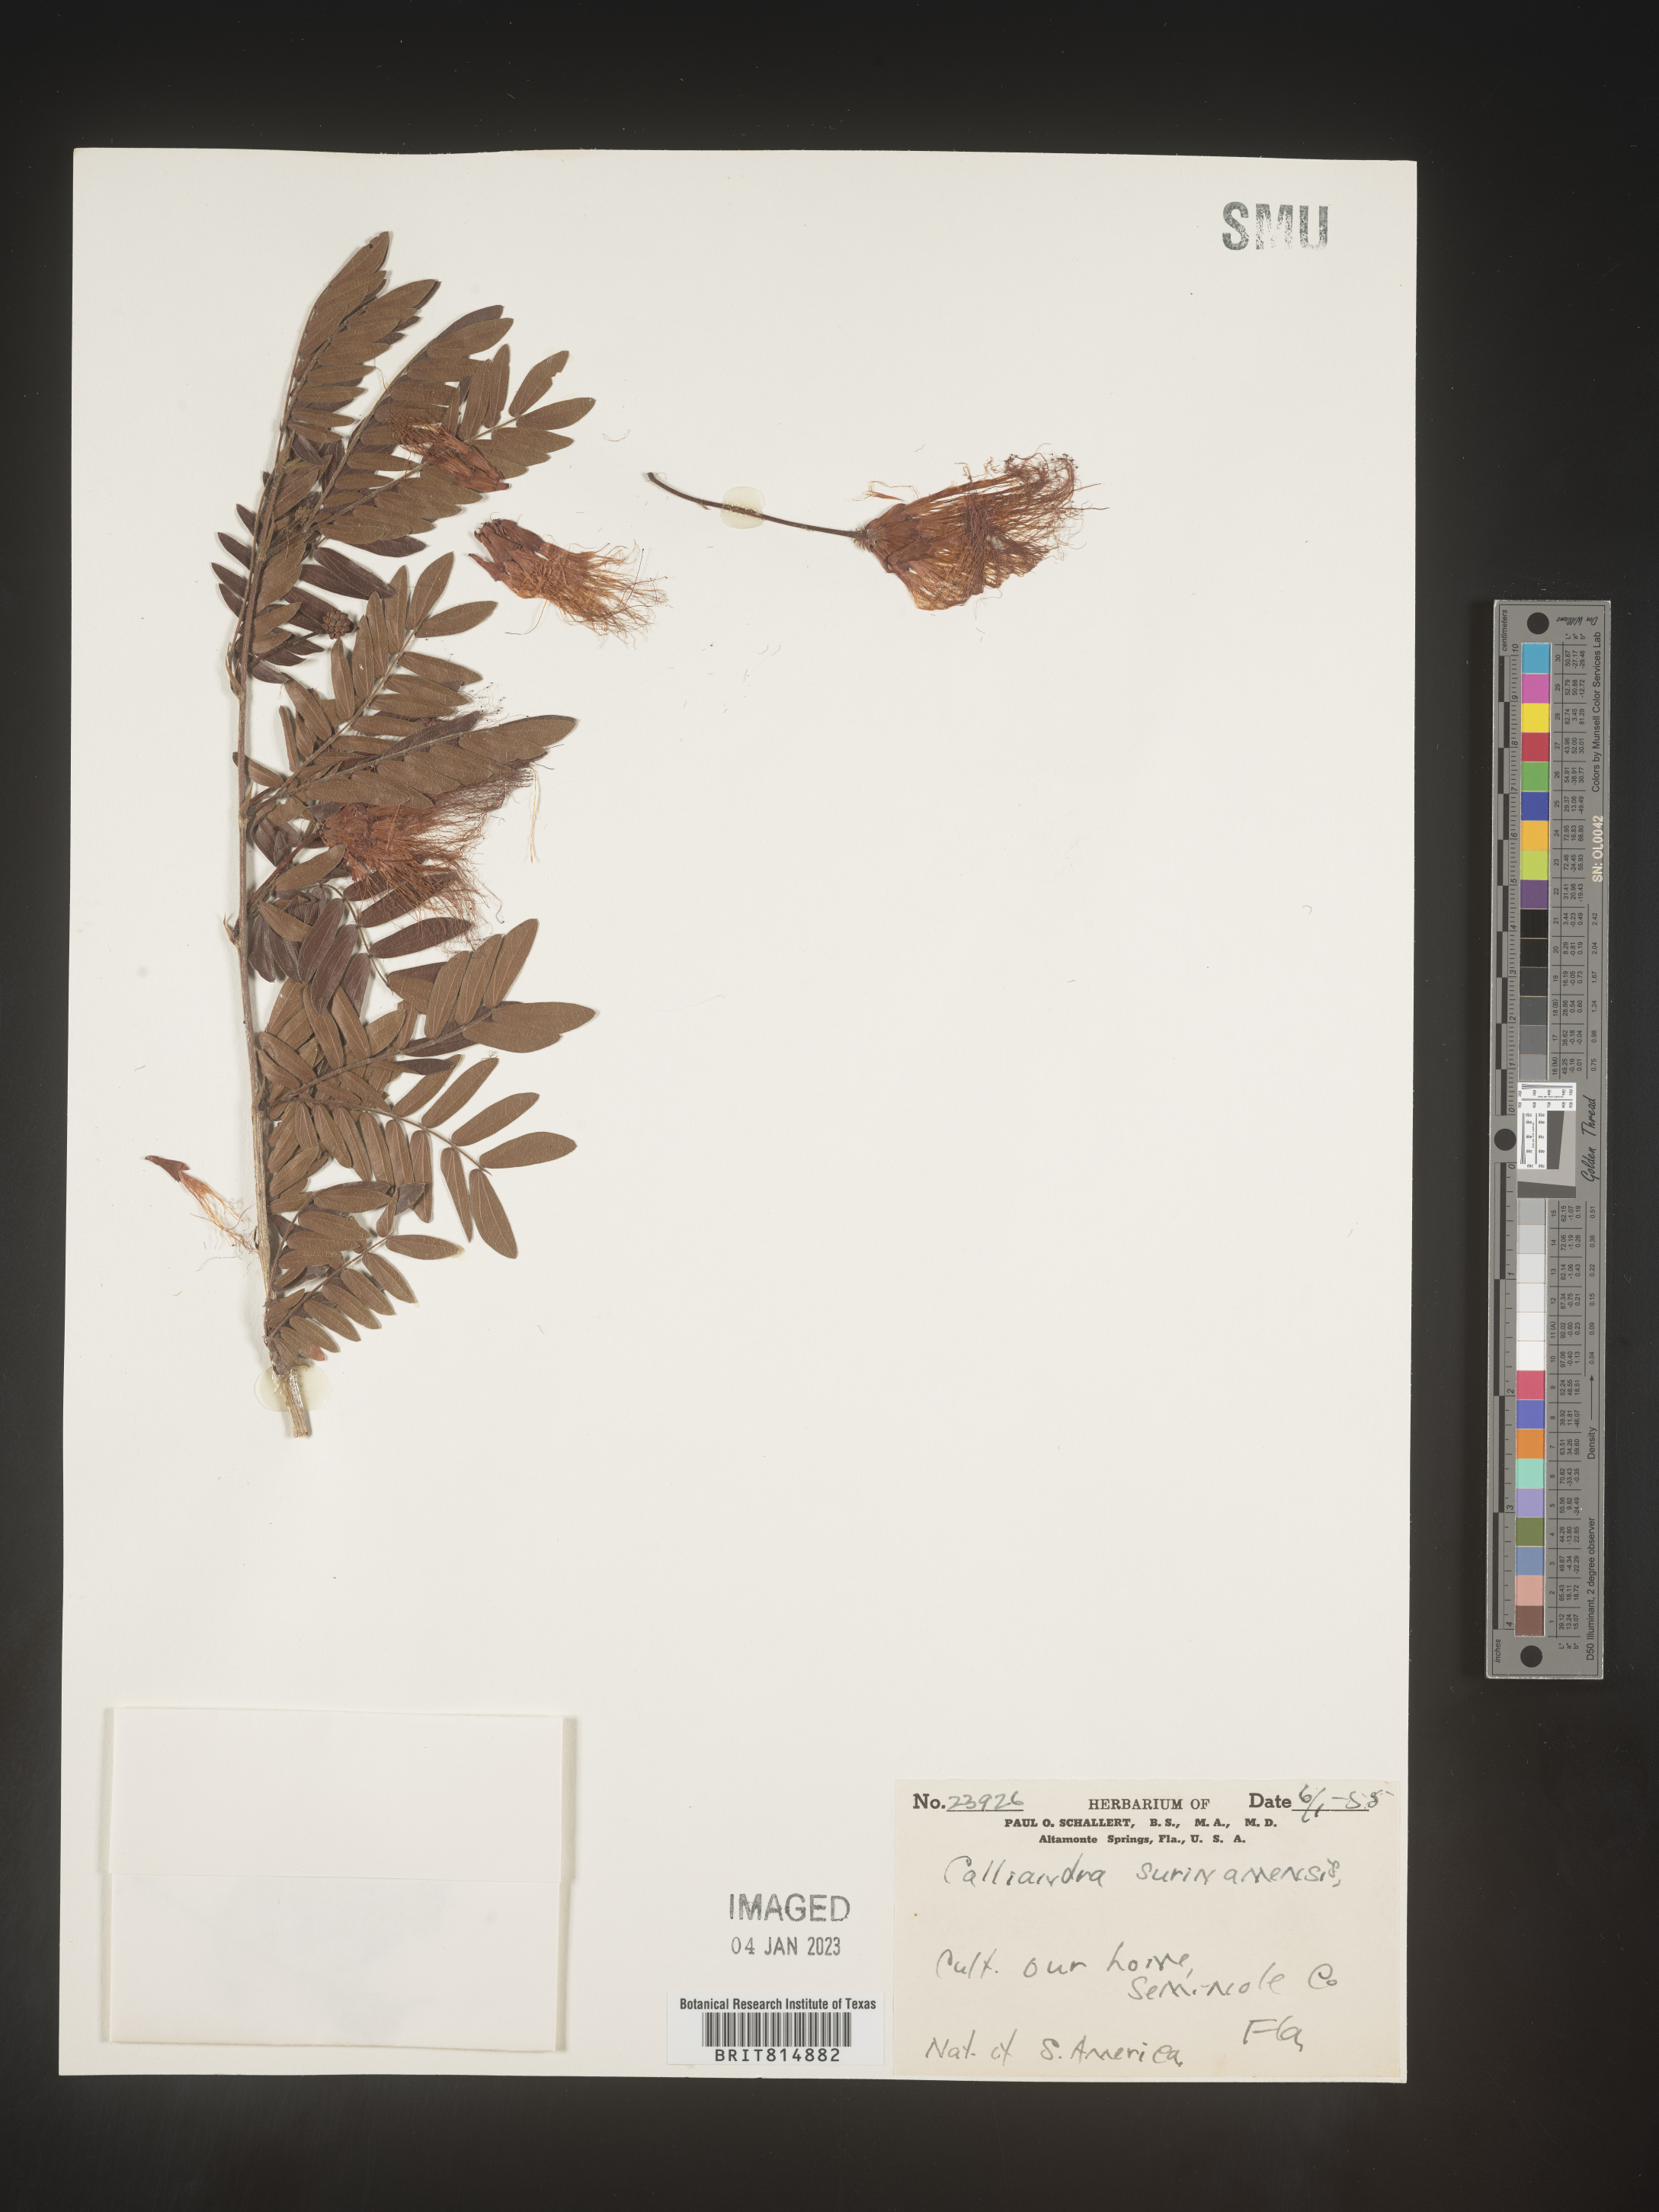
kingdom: Plantae
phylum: Tracheophyta
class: Magnoliopsida
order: Fabales
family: Fabaceae
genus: Calliandra
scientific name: Calliandra
